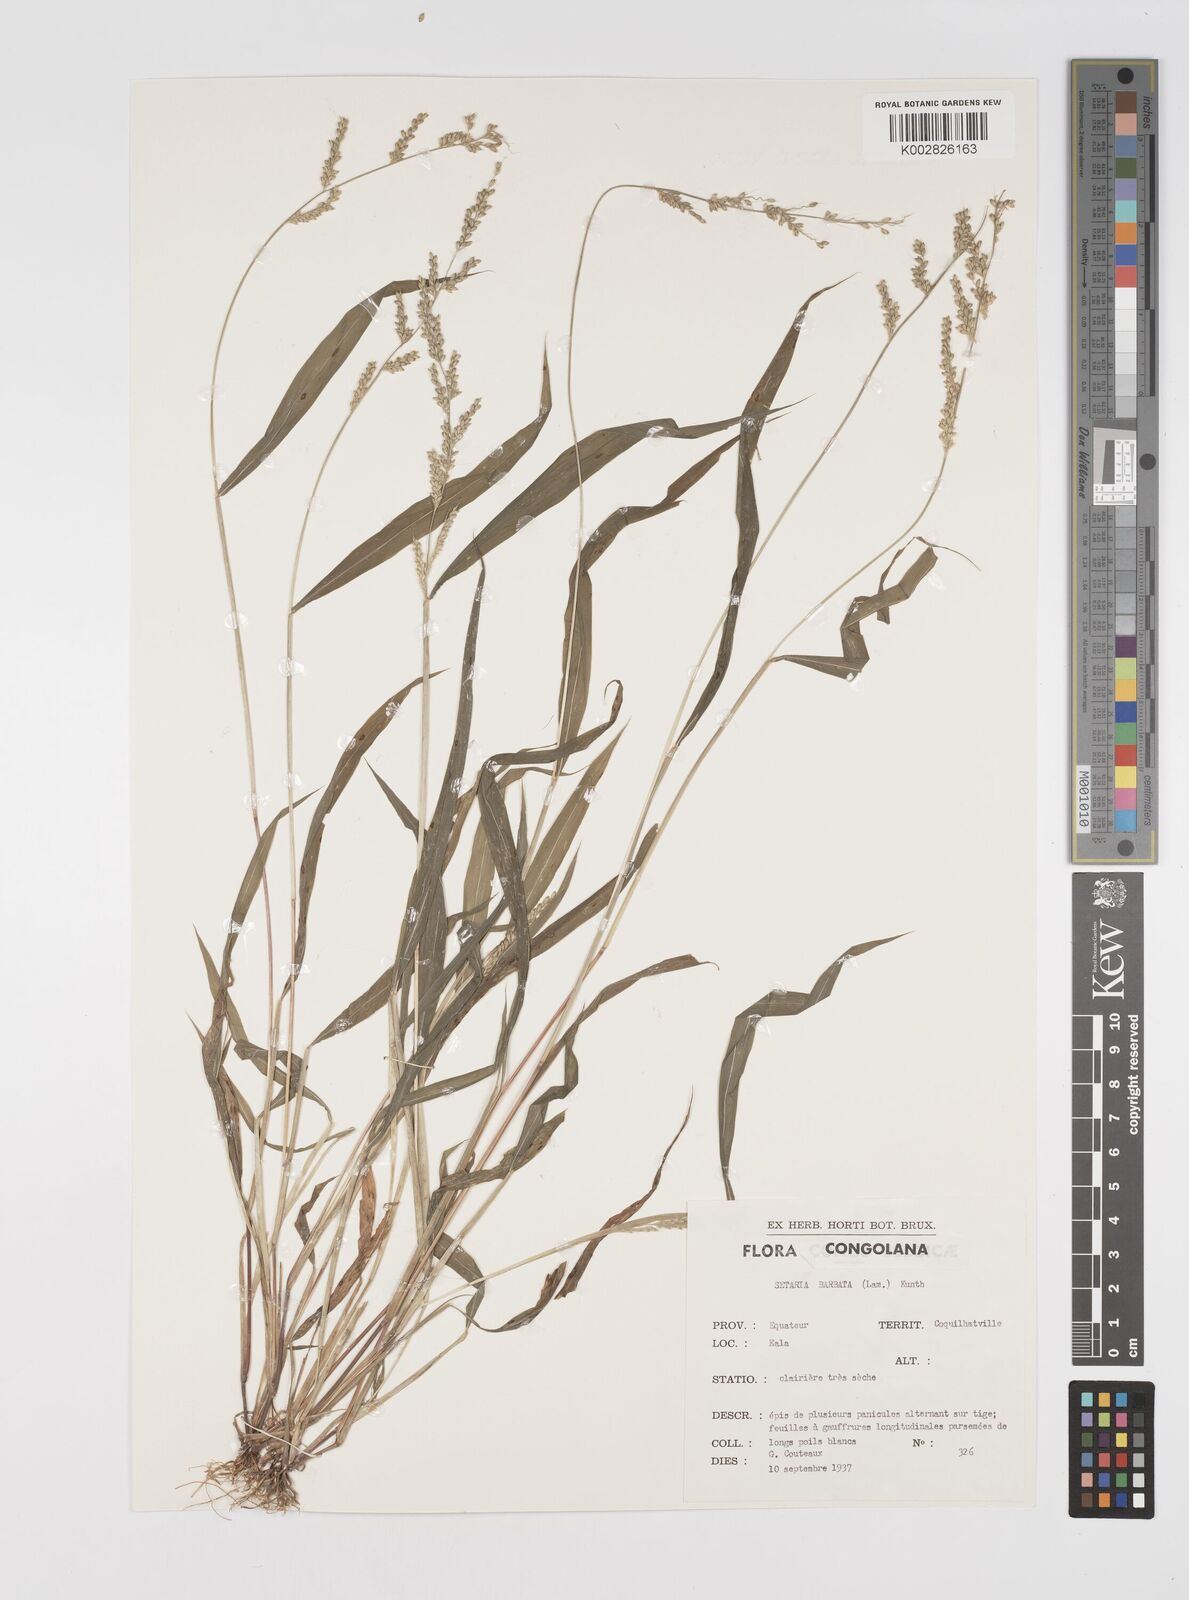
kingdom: Plantae
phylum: Tracheophyta
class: Liliopsida
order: Poales
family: Poaceae
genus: Setaria
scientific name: Setaria barbata
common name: East indian bristlegrass
